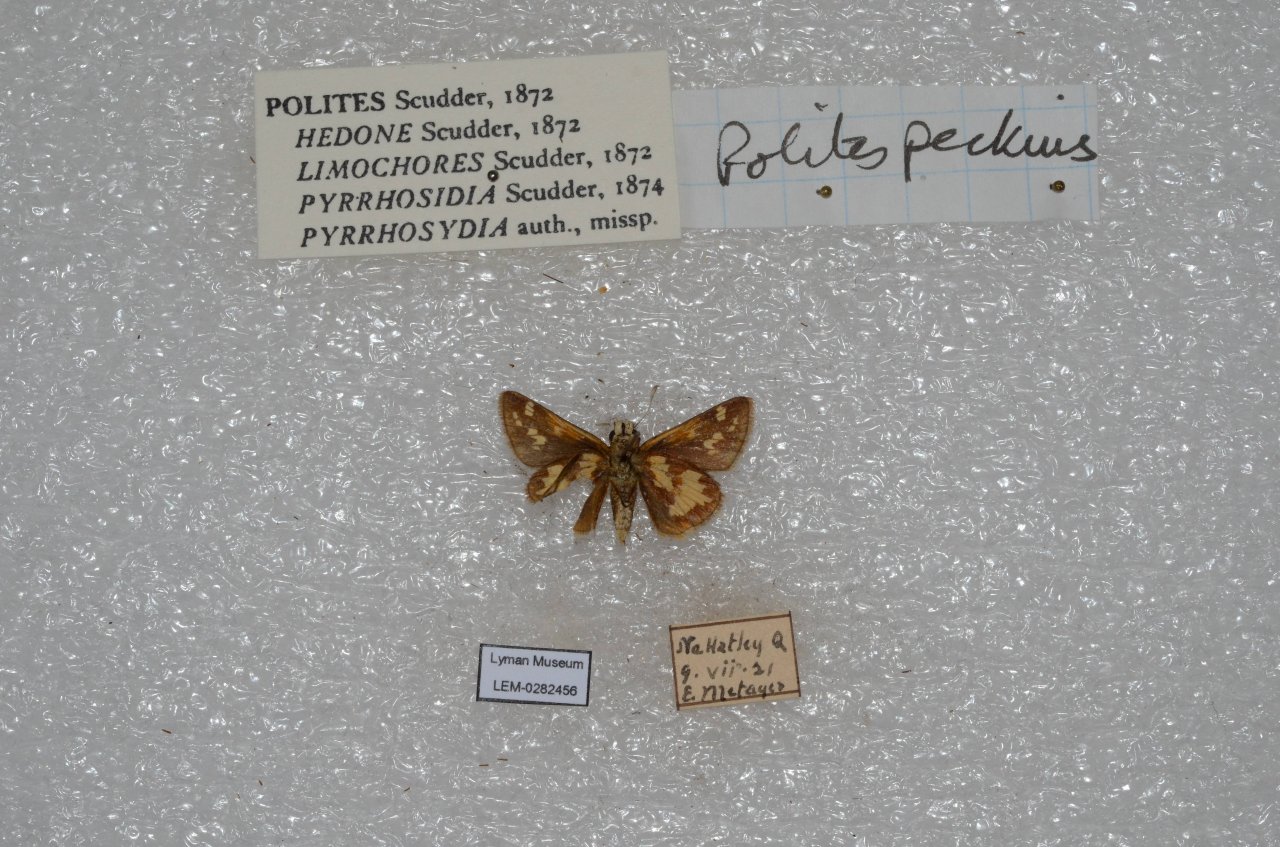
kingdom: Animalia
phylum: Arthropoda
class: Insecta
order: Lepidoptera
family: Hesperiidae
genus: Polites
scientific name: Polites coras
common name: Peck's Skipper
